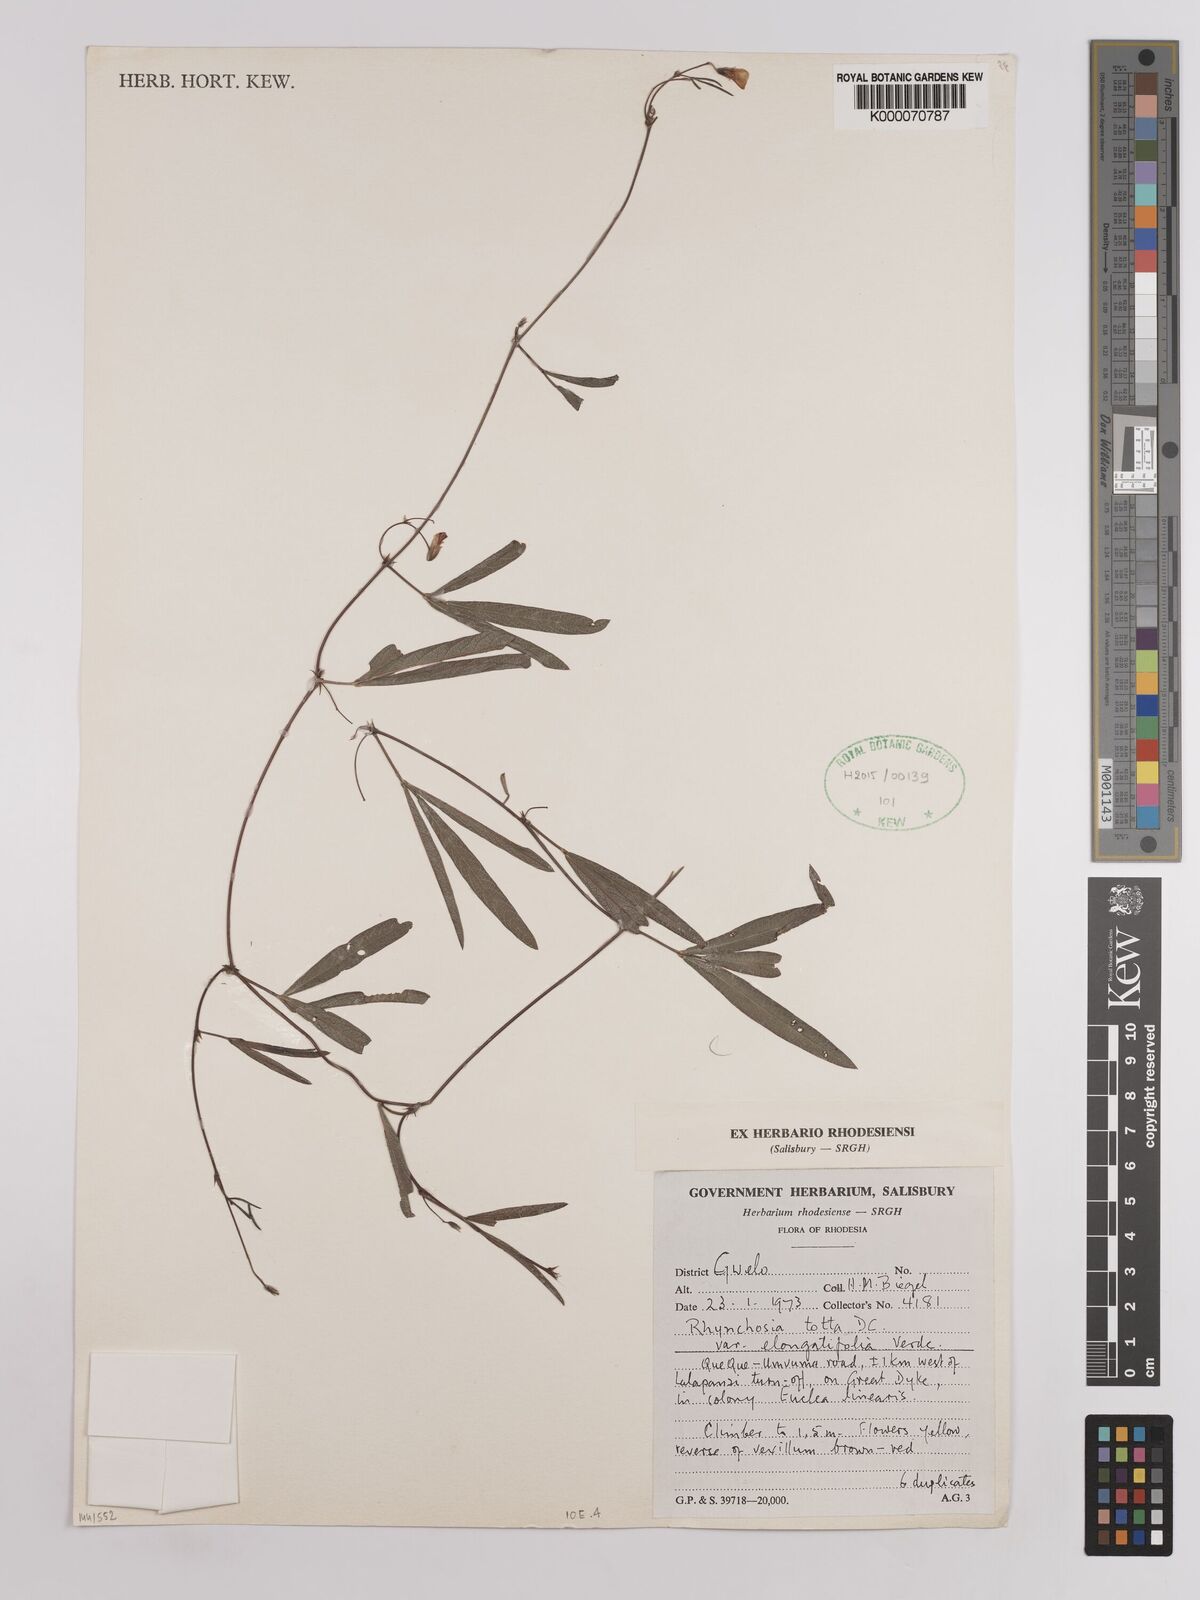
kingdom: Plantae
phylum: Tracheophyta
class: Magnoliopsida
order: Fabales
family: Fabaceae
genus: Rhynchosia
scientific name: Rhynchosia totta
